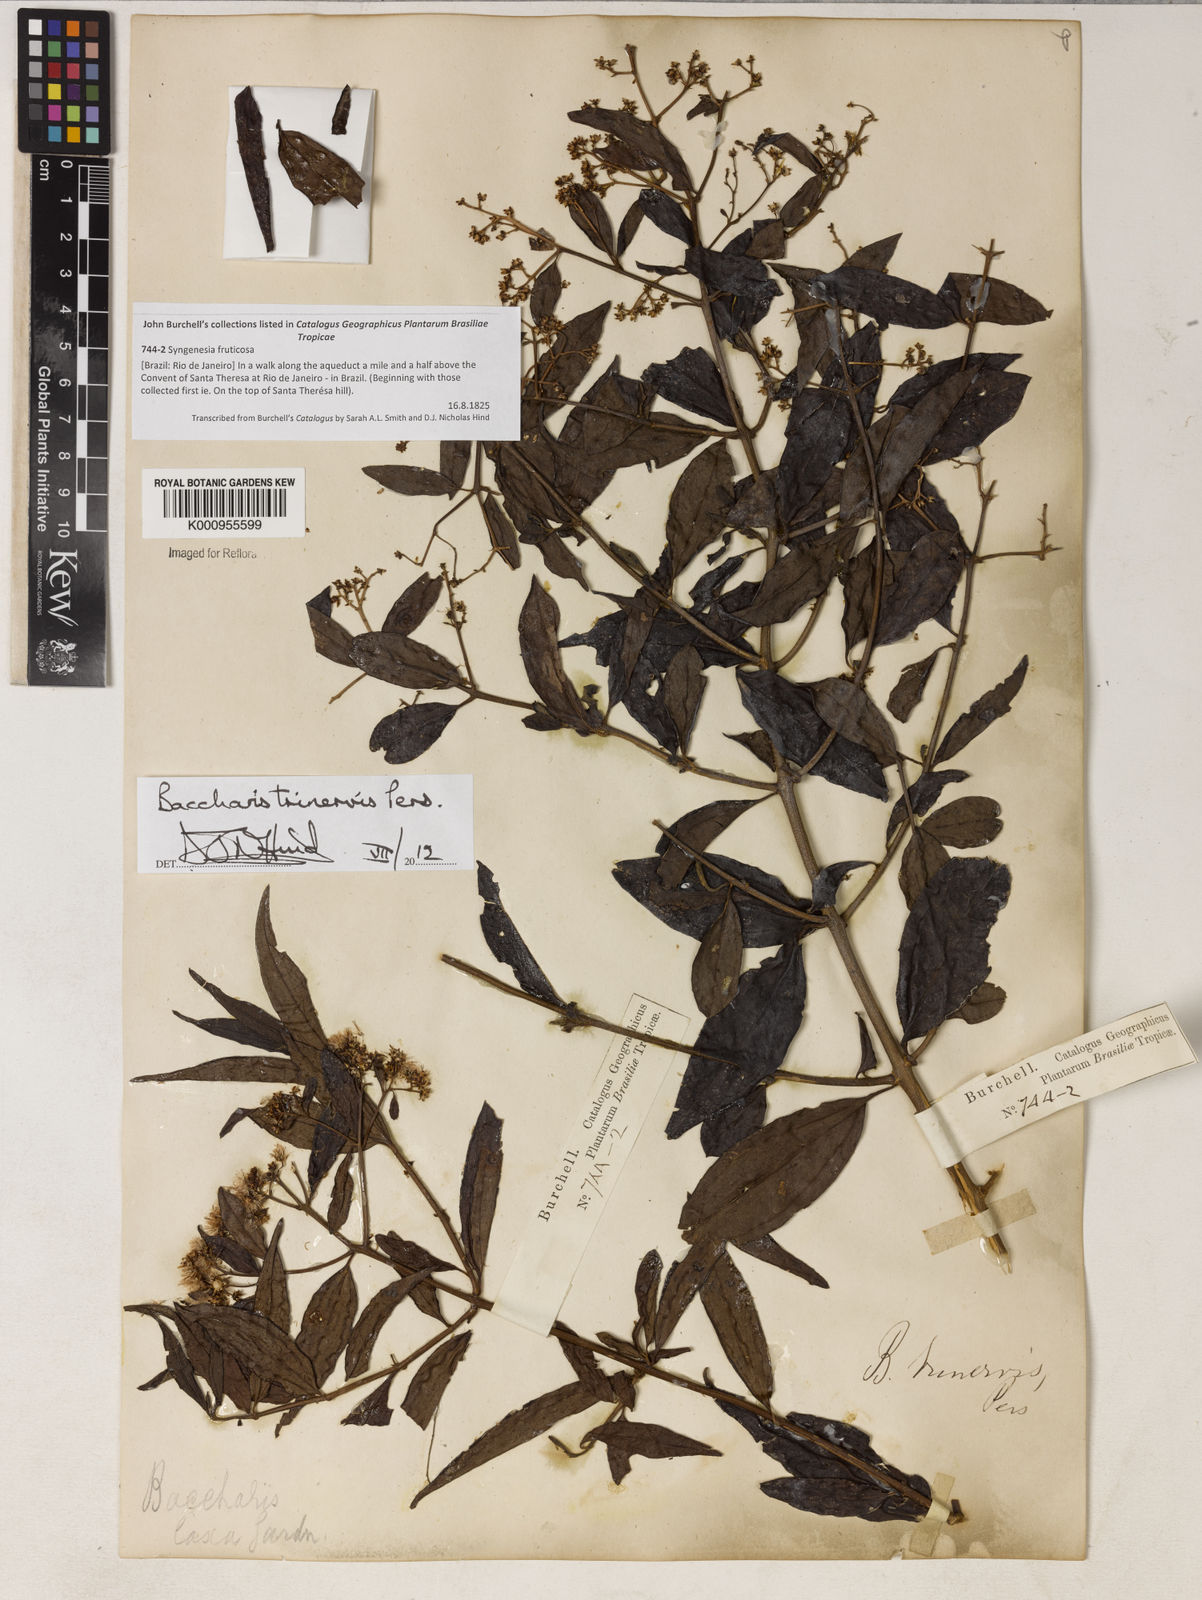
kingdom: Plantae
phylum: Tracheophyta
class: Magnoliopsida
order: Asterales
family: Asteraceae
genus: Baccharis
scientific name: Baccharis trinervis
